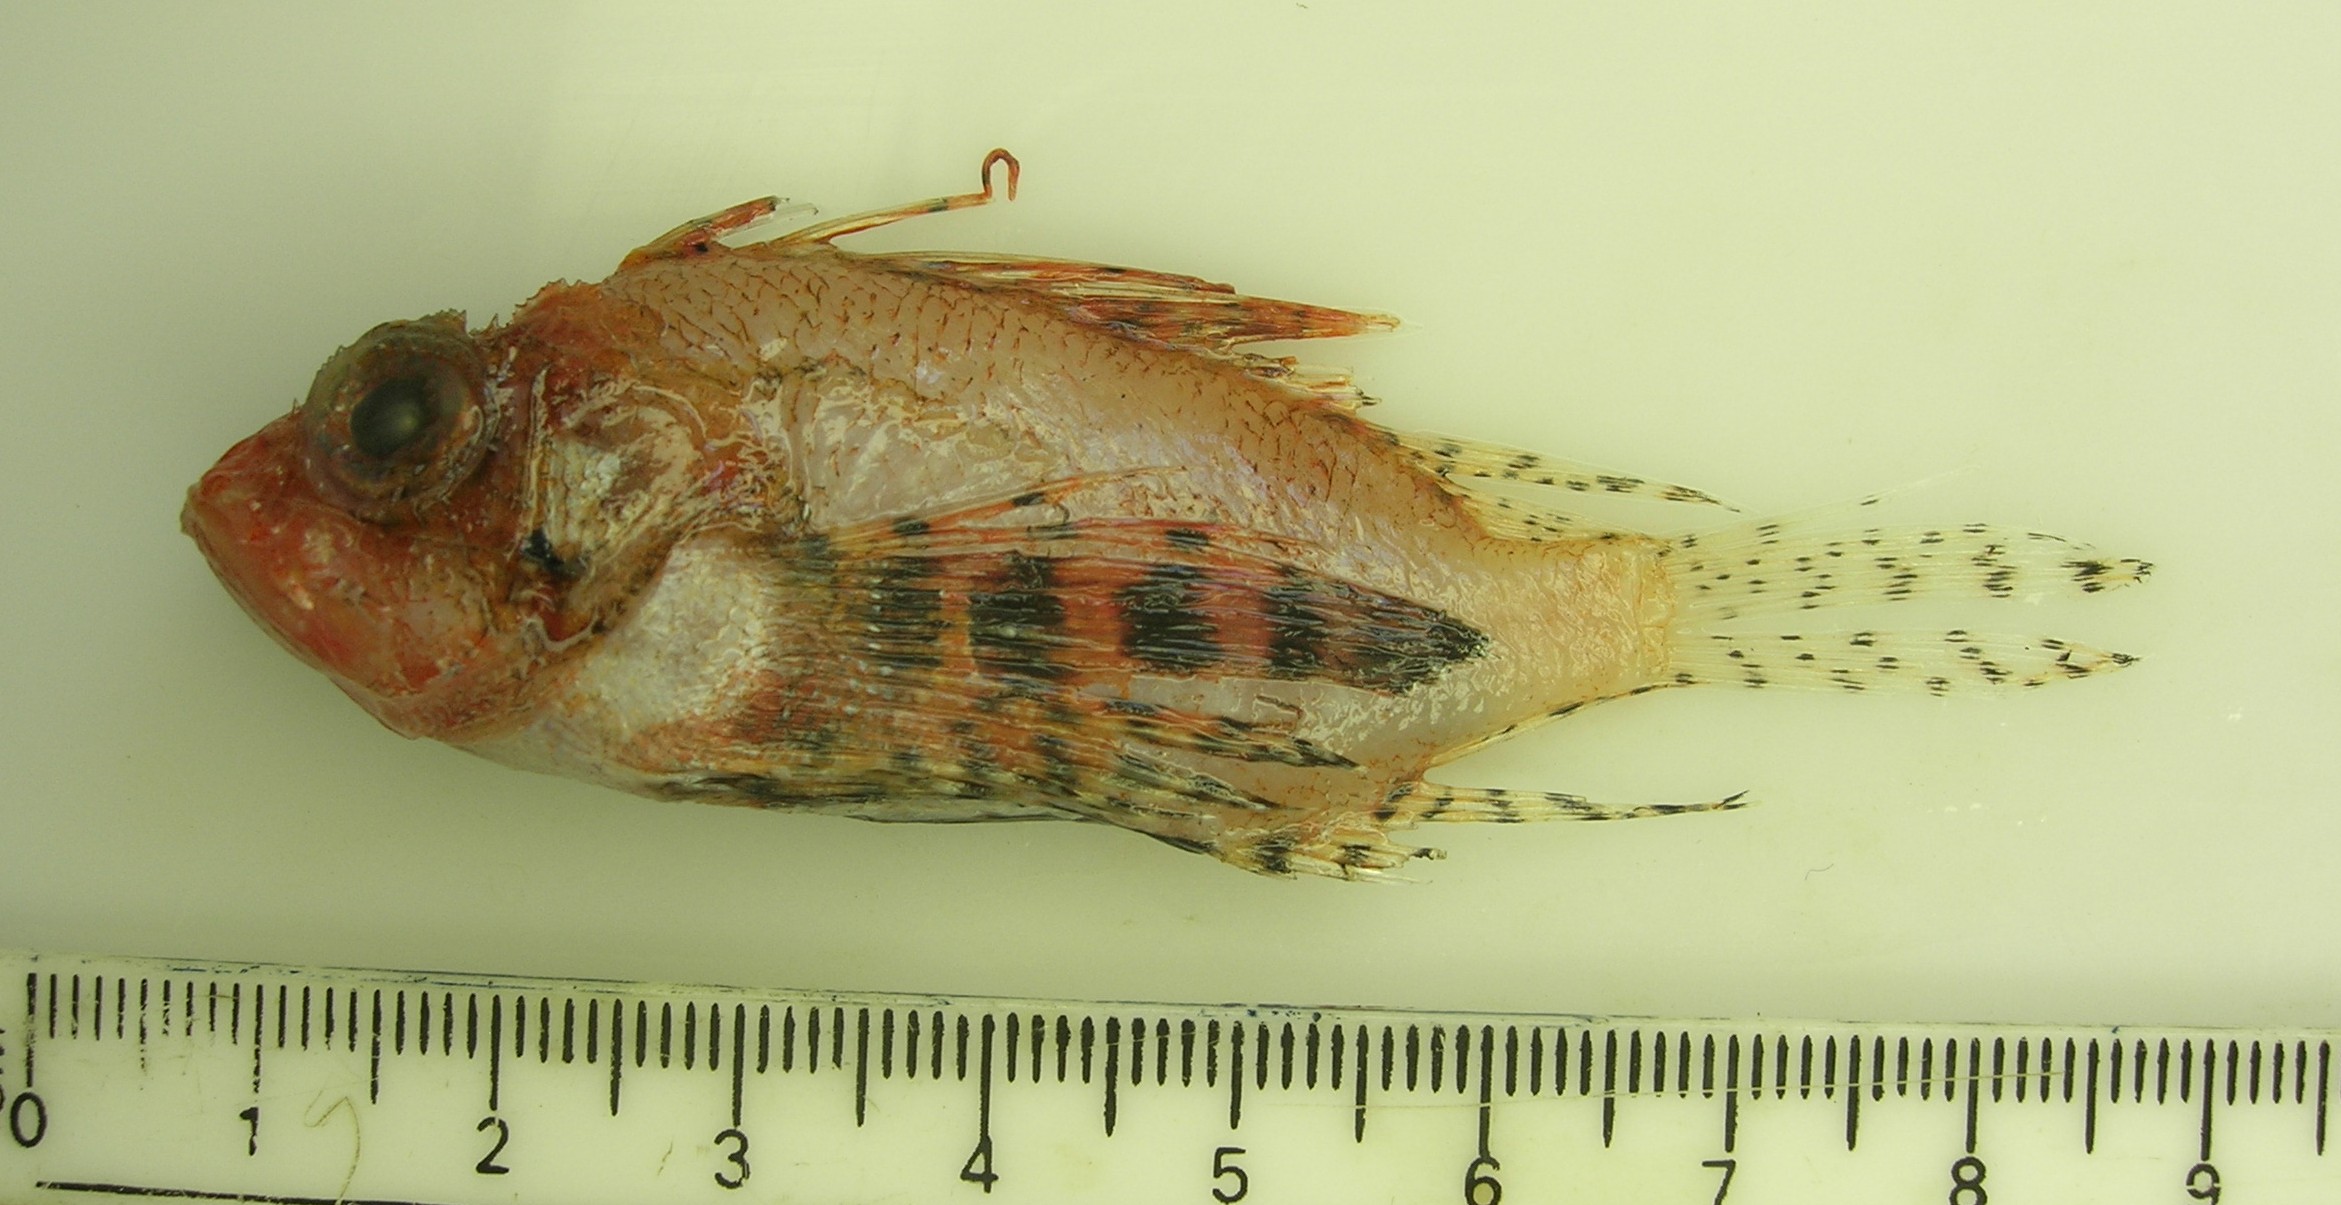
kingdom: Animalia
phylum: Chordata
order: Scorpaeniformes
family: Scorpaenidae
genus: Dendrochirus
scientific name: Dendrochirus brachypterus
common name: Shortfin turkeyfish
